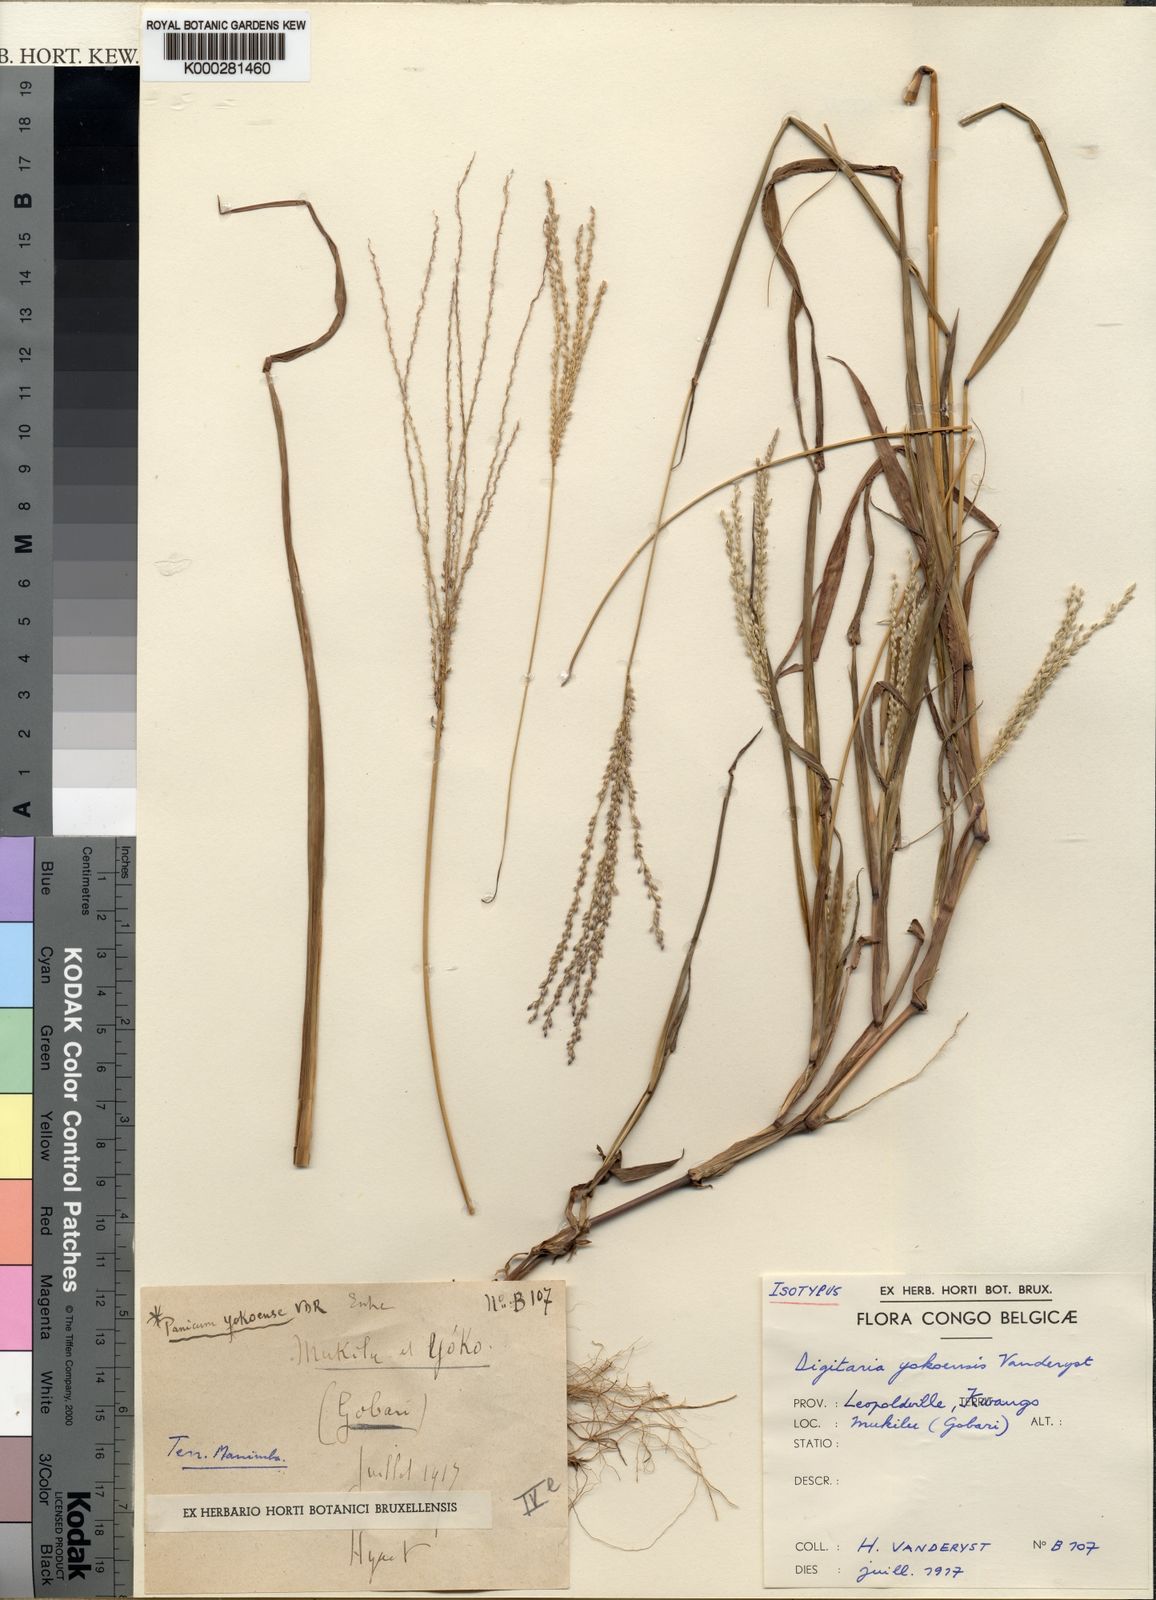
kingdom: Plantae
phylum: Tracheophyta
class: Liliopsida
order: Poales
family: Poaceae
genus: Digitaria
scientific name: Digitaria angolensis
